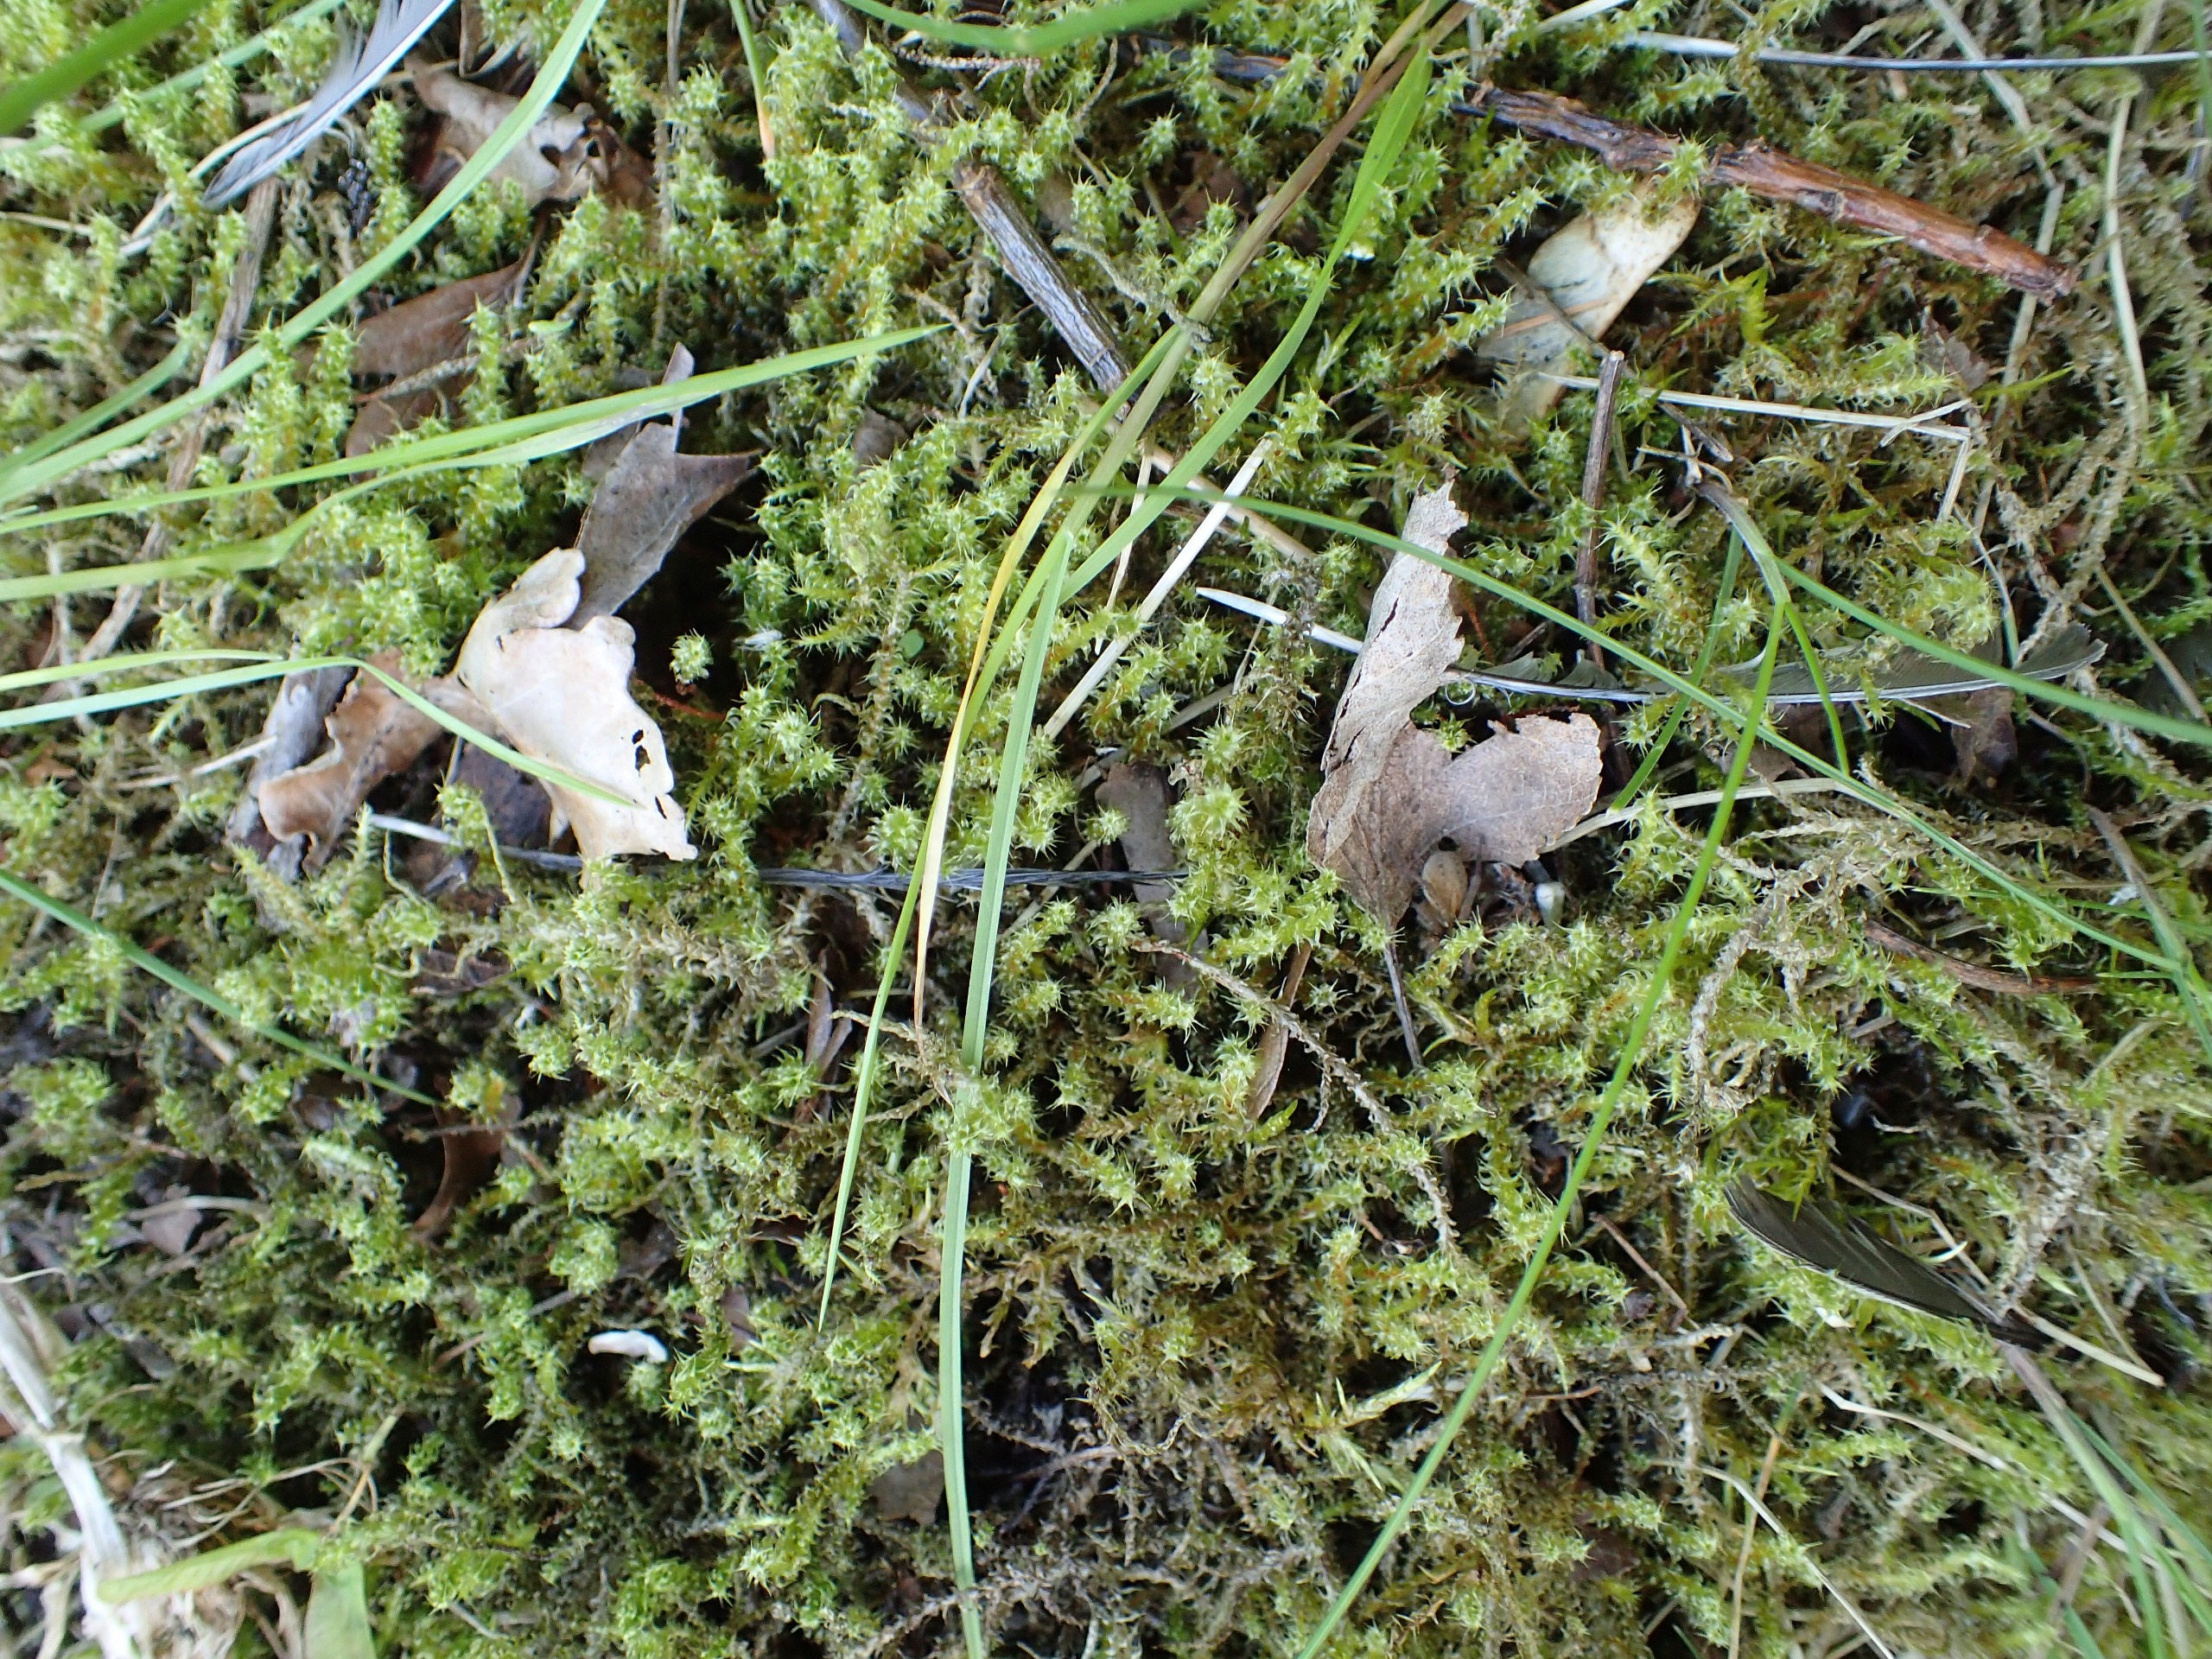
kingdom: Plantae
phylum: Bryophyta
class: Bryopsida
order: Hypnales
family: Hylocomiaceae
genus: Rhytidiadelphus
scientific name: Rhytidiadelphus squarrosus
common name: Plæne-kransemos
